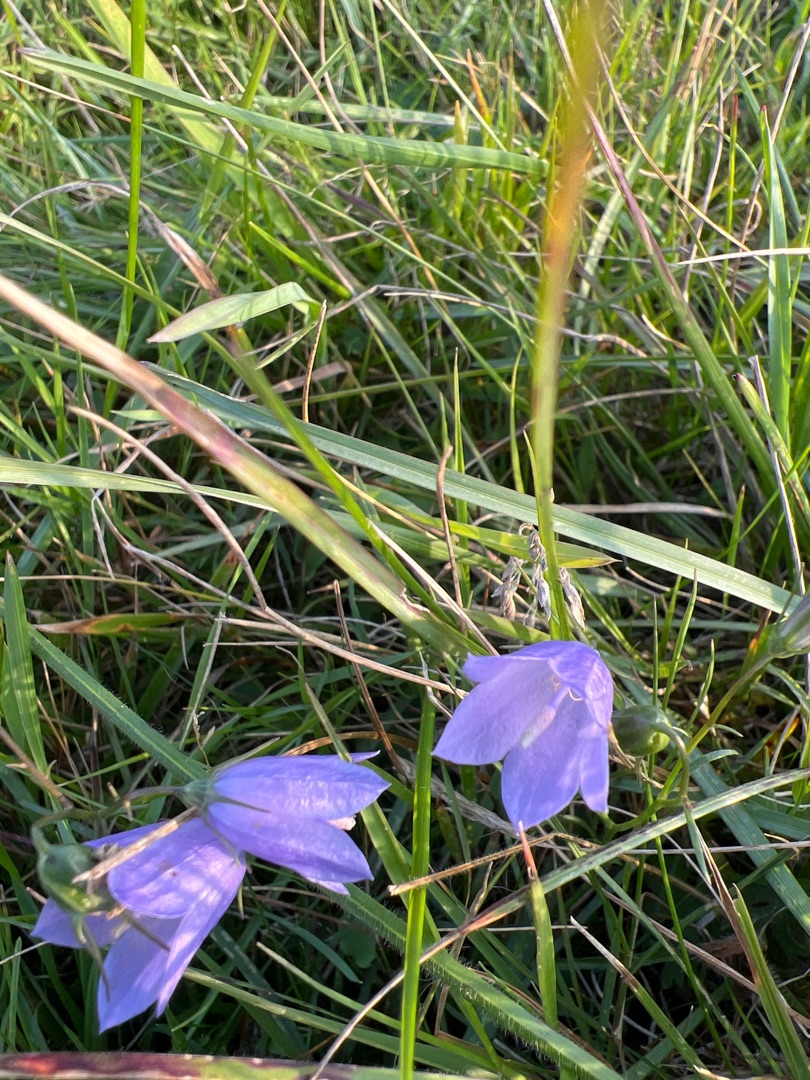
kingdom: Plantae
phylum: Tracheophyta
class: Magnoliopsida
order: Asterales
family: Campanulaceae
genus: Campanula
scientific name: Campanula rotundifolia
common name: Liden klokke
